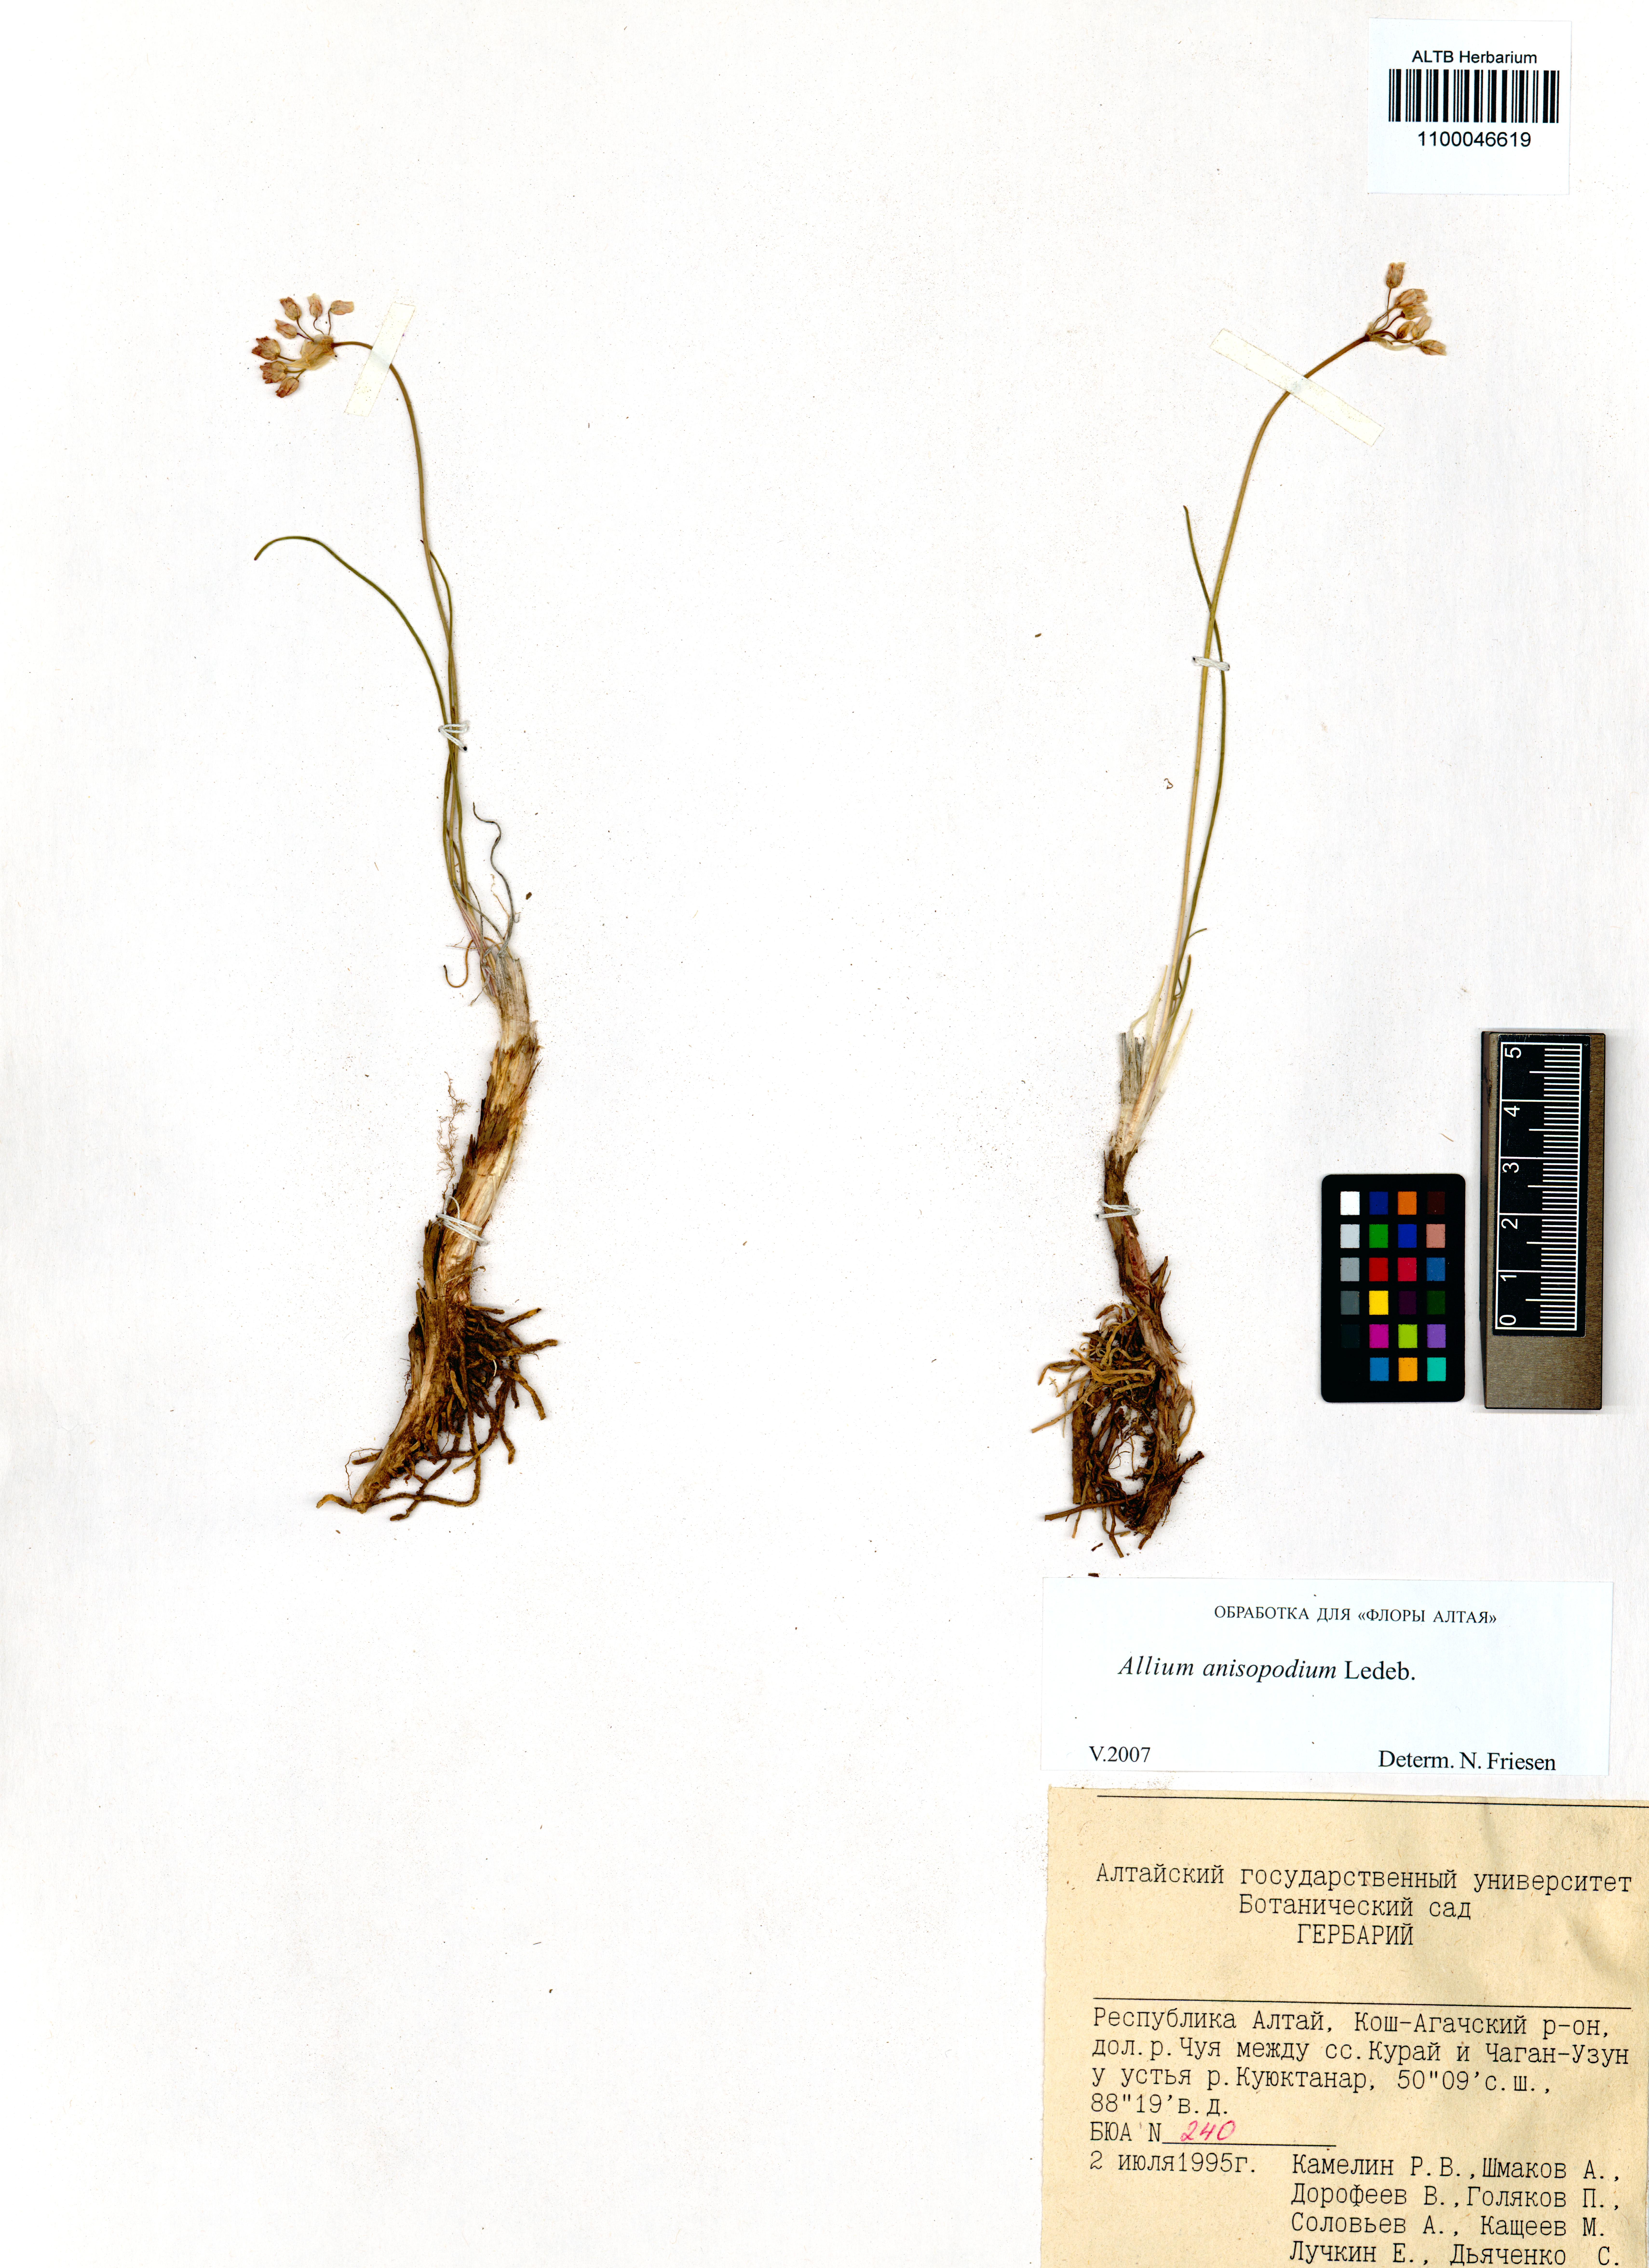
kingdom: Plantae
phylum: Tracheophyta
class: Liliopsida
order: Asparagales
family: Amaryllidaceae
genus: Allium
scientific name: Allium anisopodium
